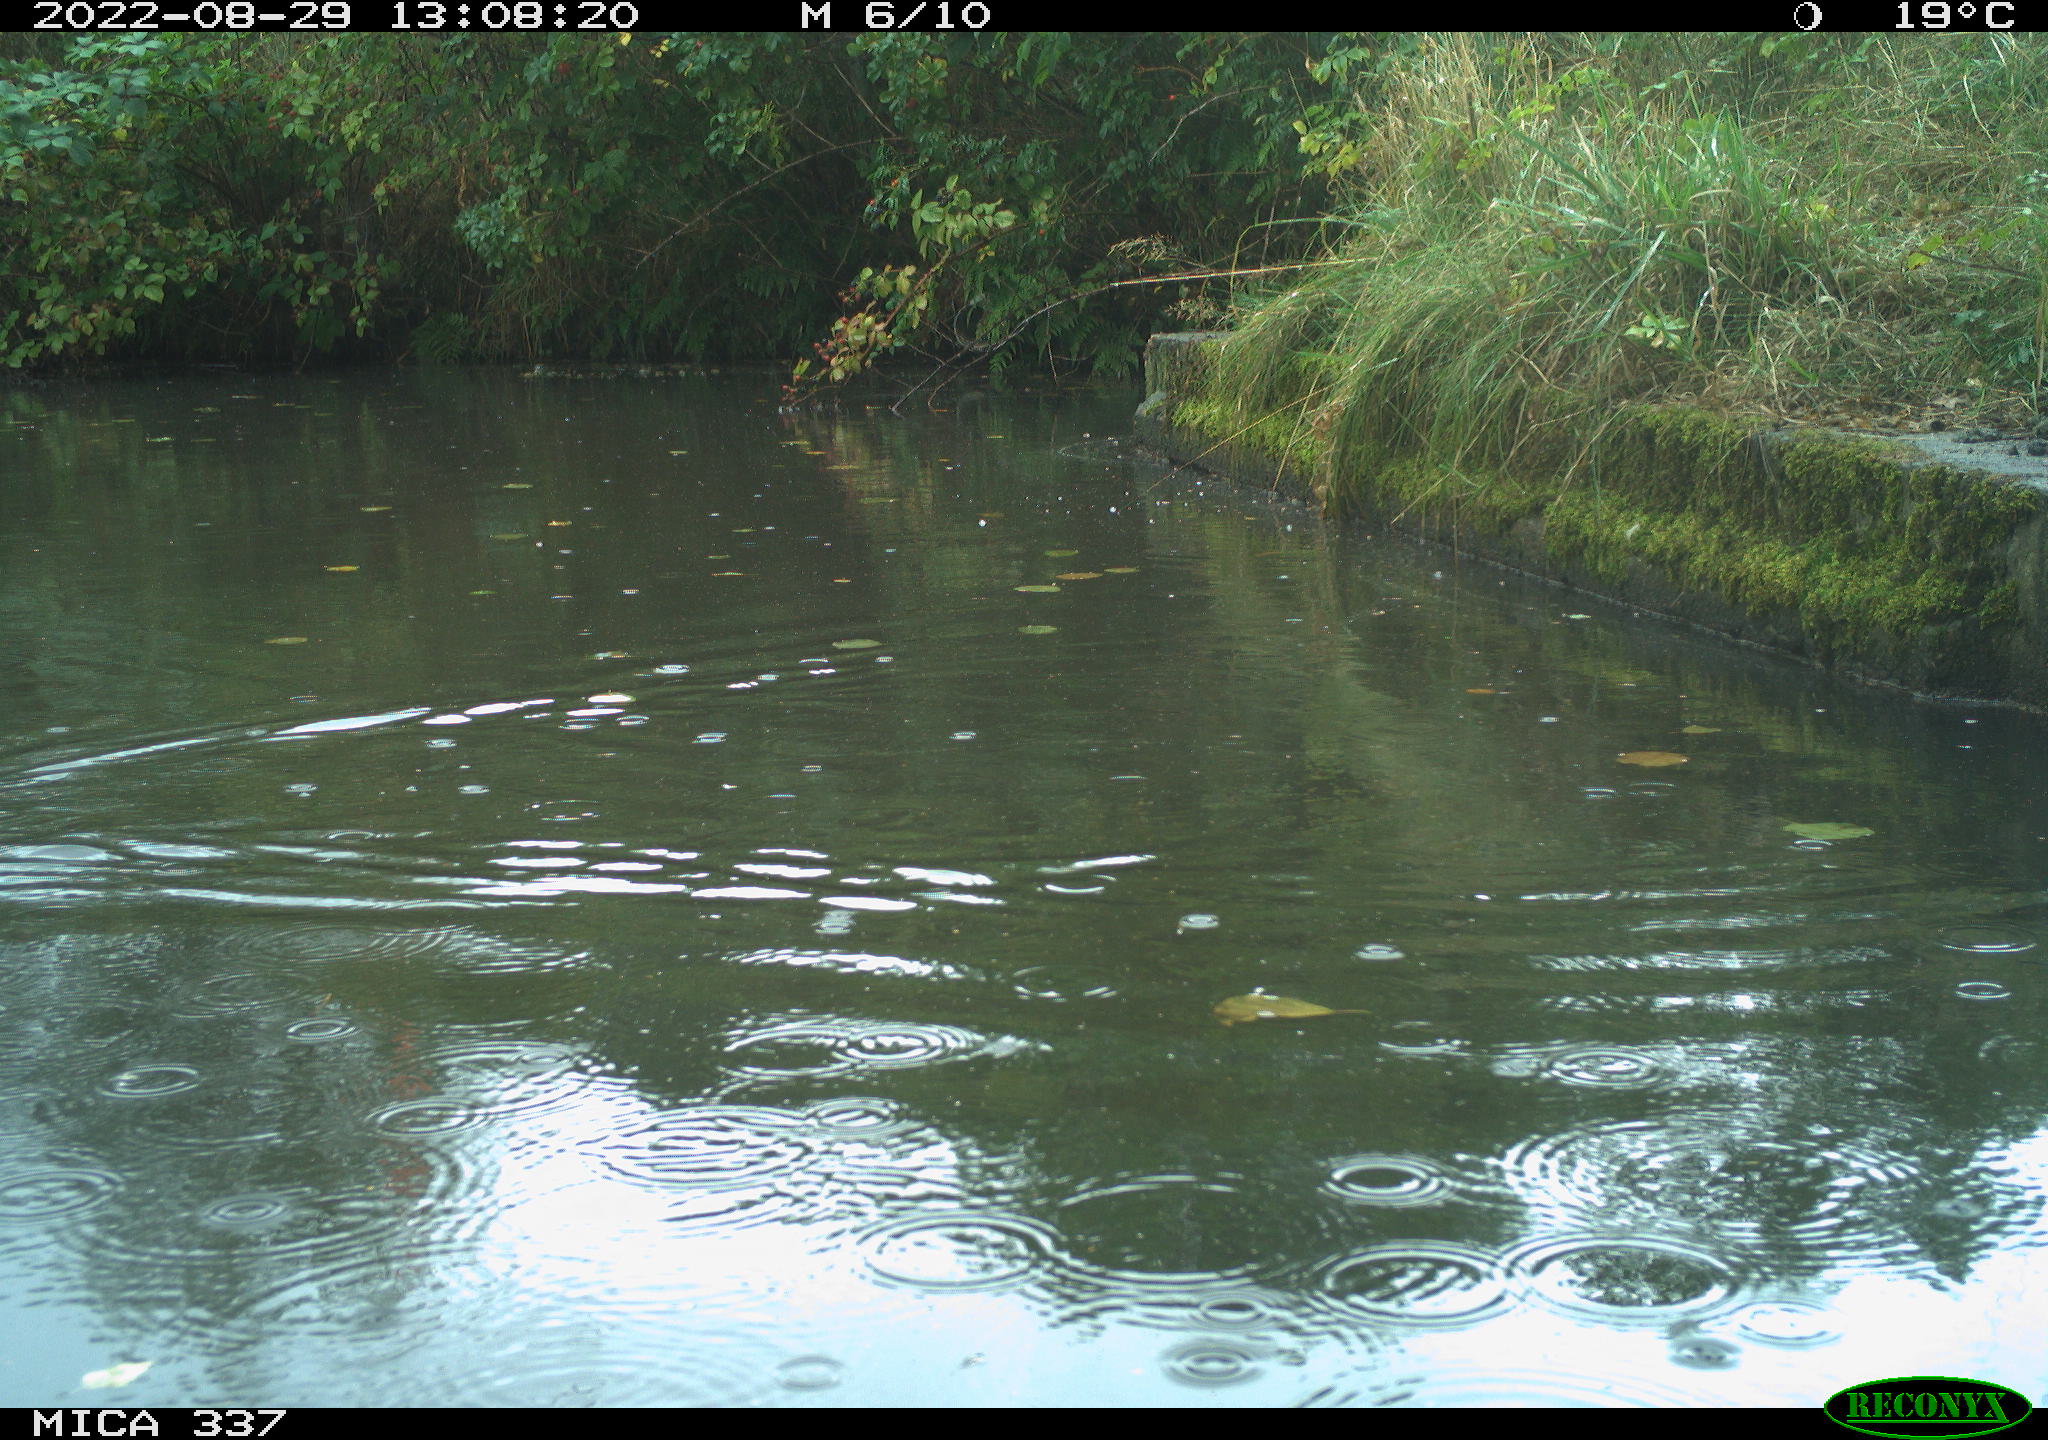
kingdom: Animalia
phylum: Chordata
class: Aves
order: Anseriformes
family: Anatidae
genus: Anas
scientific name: Anas platyrhynchos
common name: Mallard
